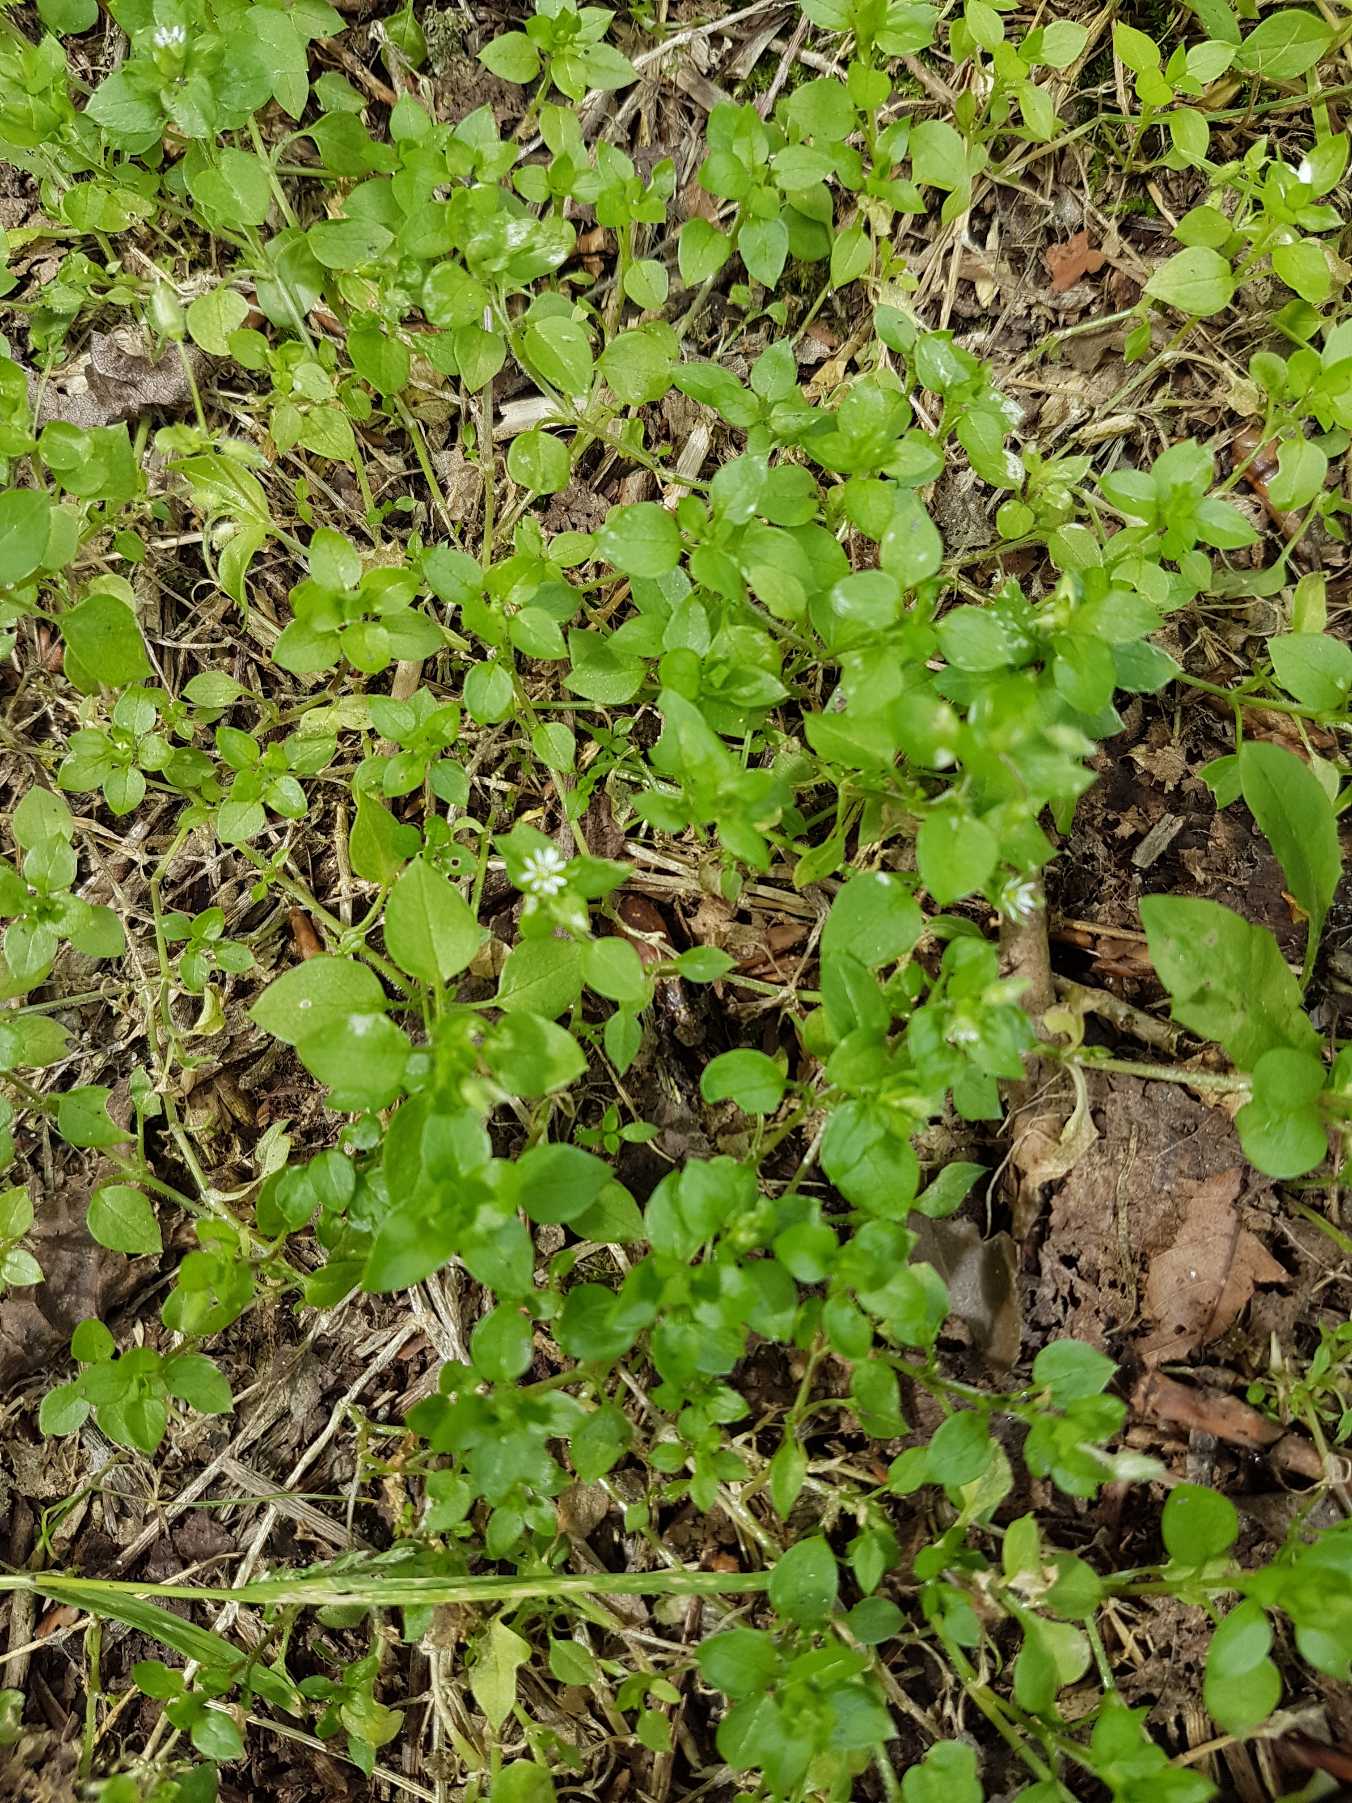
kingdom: Plantae
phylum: Tracheophyta
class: Magnoliopsida
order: Caryophyllales
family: Caryophyllaceae
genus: Stellaria
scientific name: Stellaria media
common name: Almindelig fuglegræs
